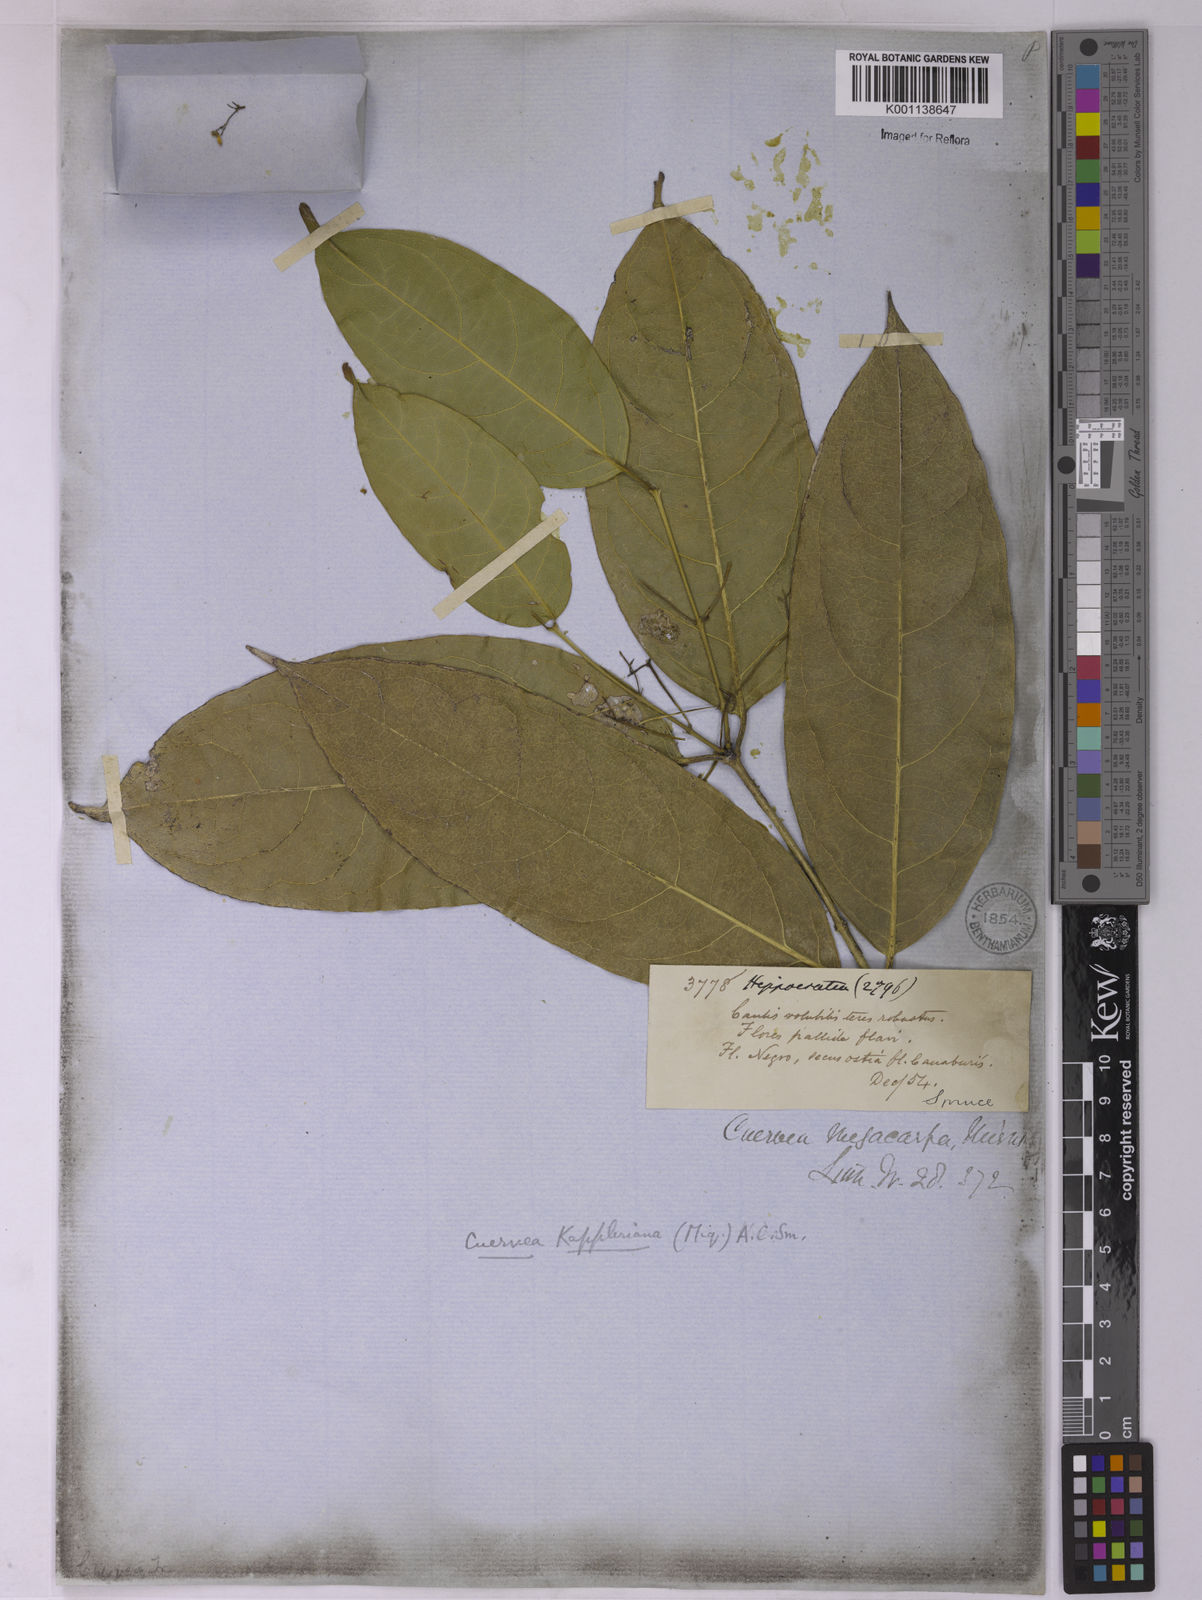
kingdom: Plantae
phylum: Tracheophyta
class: Magnoliopsida
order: Celastrales
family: Celastraceae
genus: Cuervea
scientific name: Cuervea kappleriana
